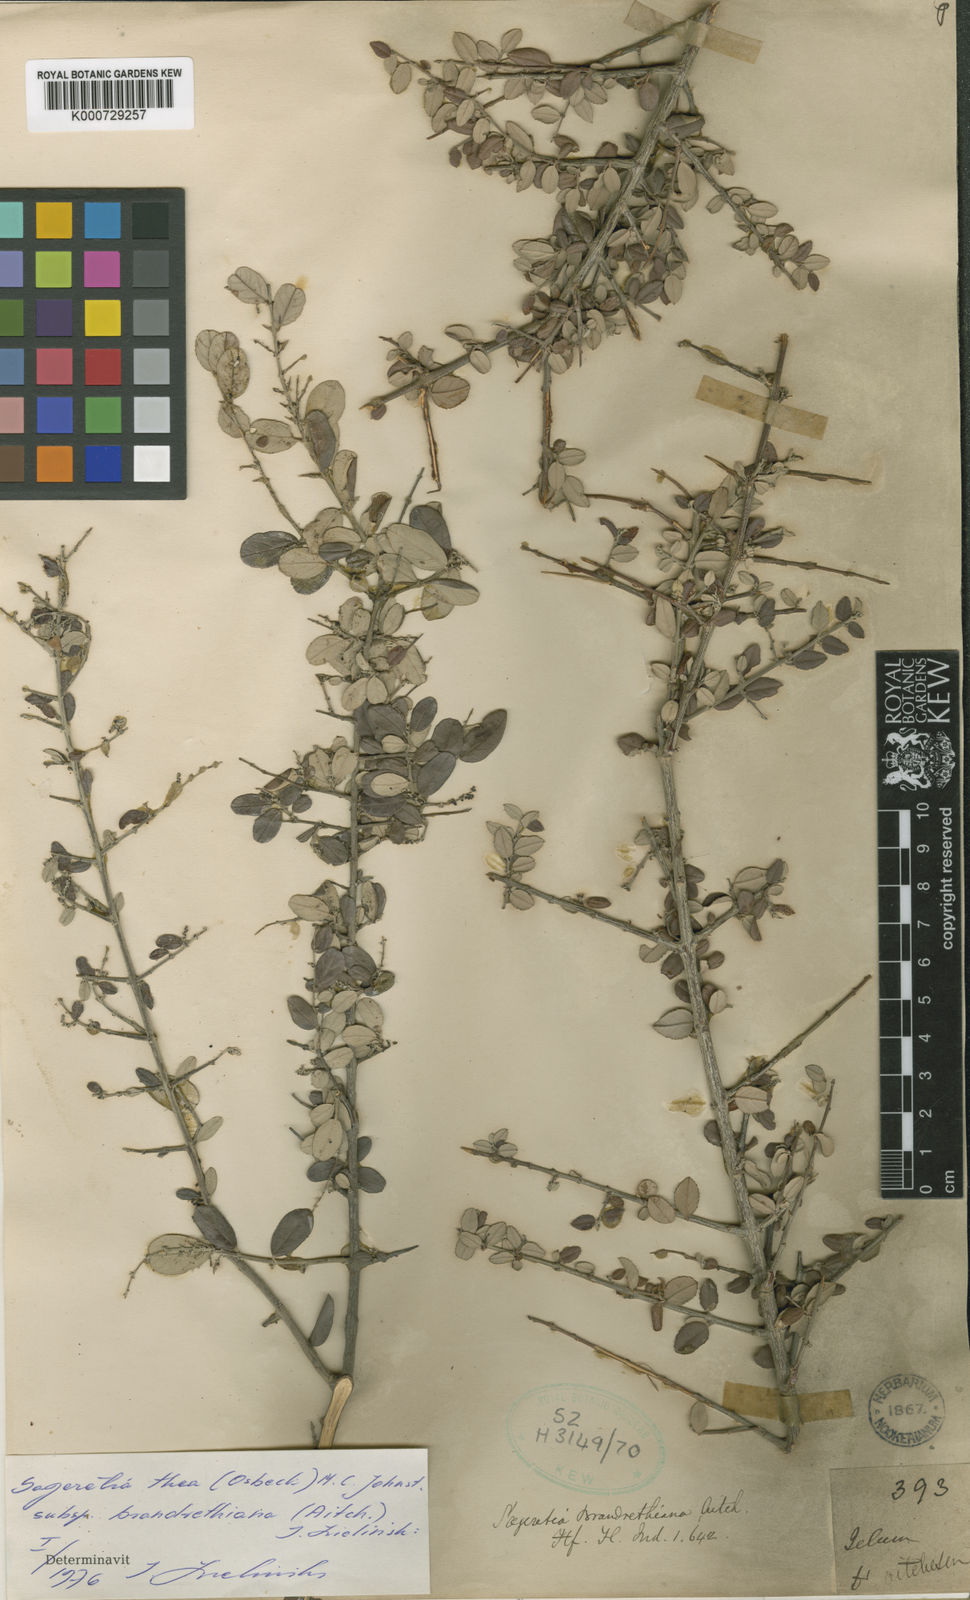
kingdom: Plantae
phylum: Tracheophyta
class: Magnoliopsida
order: Rosales
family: Rhamnaceae
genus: Sageretia
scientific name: Sageretia thea
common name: Pauper's-tea
